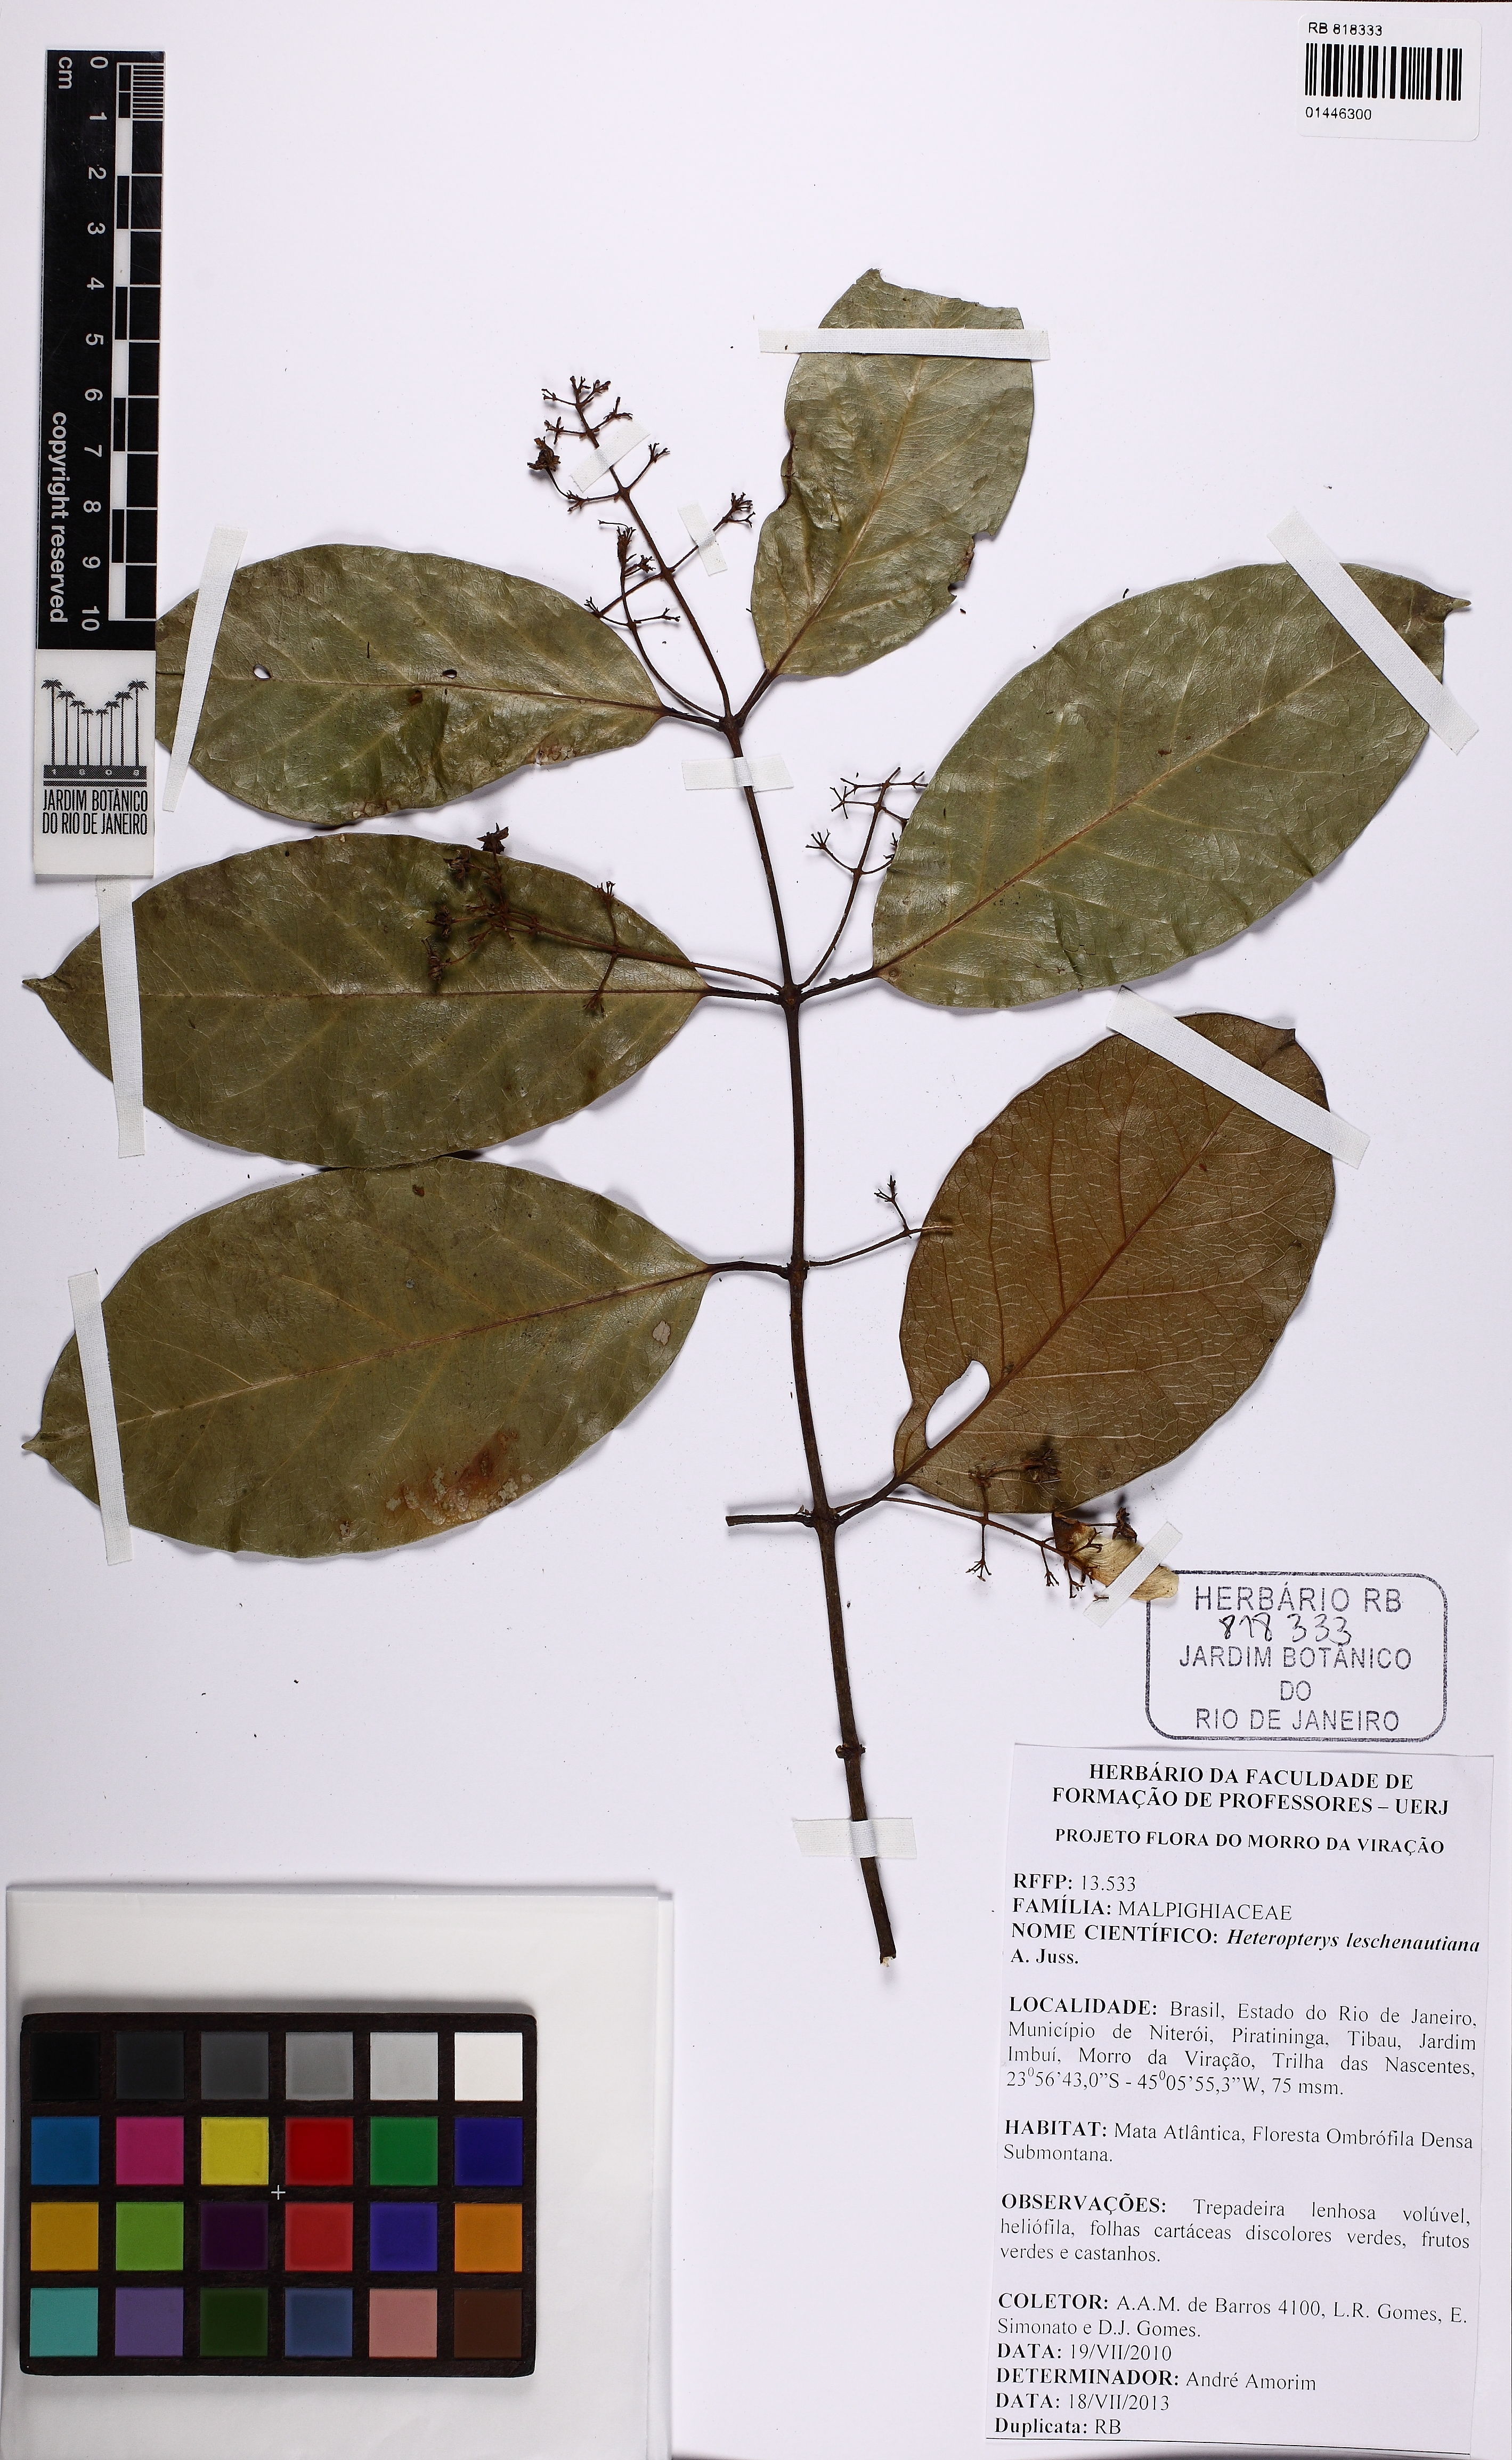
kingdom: Plantae
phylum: Tracheophyta
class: Magnoliopsida
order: Malpighiales
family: Malpighiaceae
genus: Heteropterys
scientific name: Heteropterys leschenaultiana
